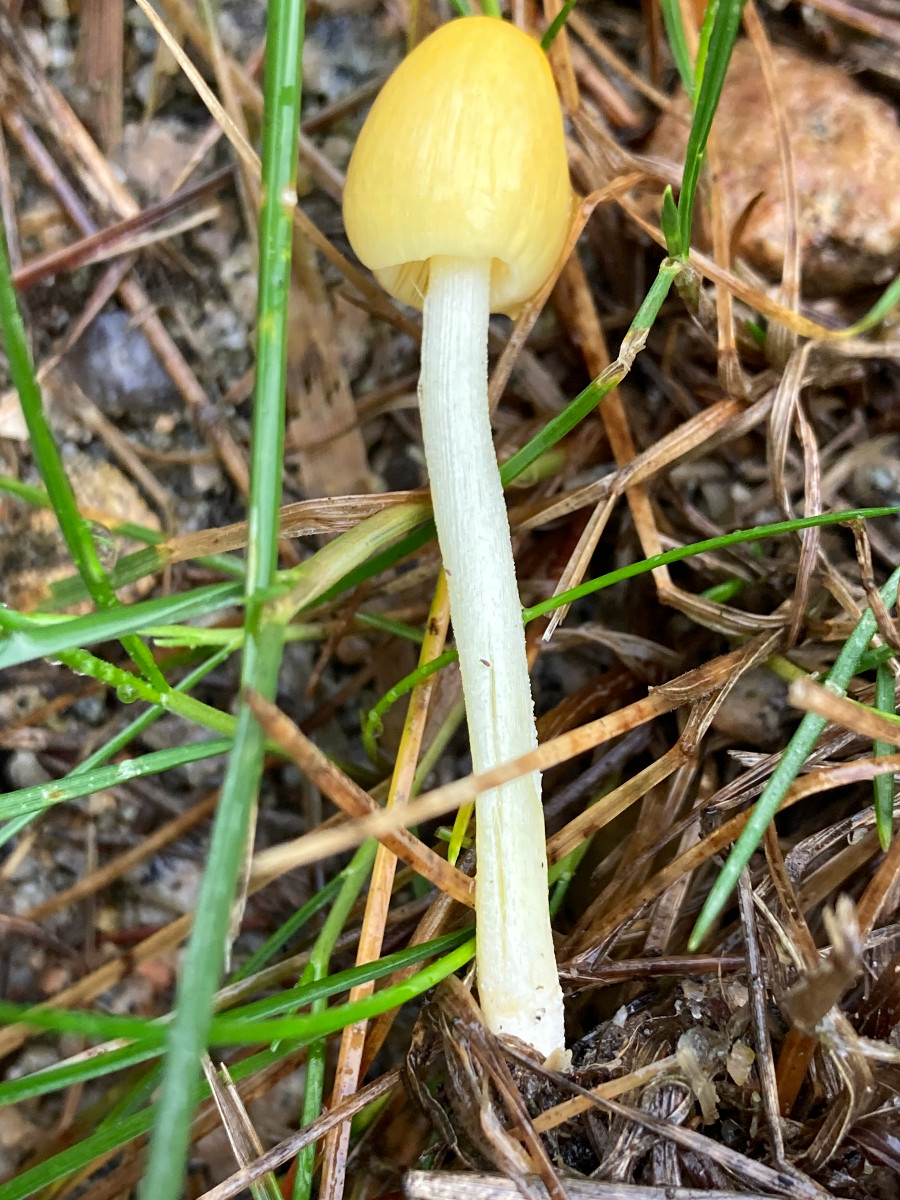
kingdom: Fungi
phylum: Basidiomycota
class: Agaricomycetes
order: Agaricales
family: Bolbitiaceae
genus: Bolbitius
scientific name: Bolbitius titubans
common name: almindelig gulhat
